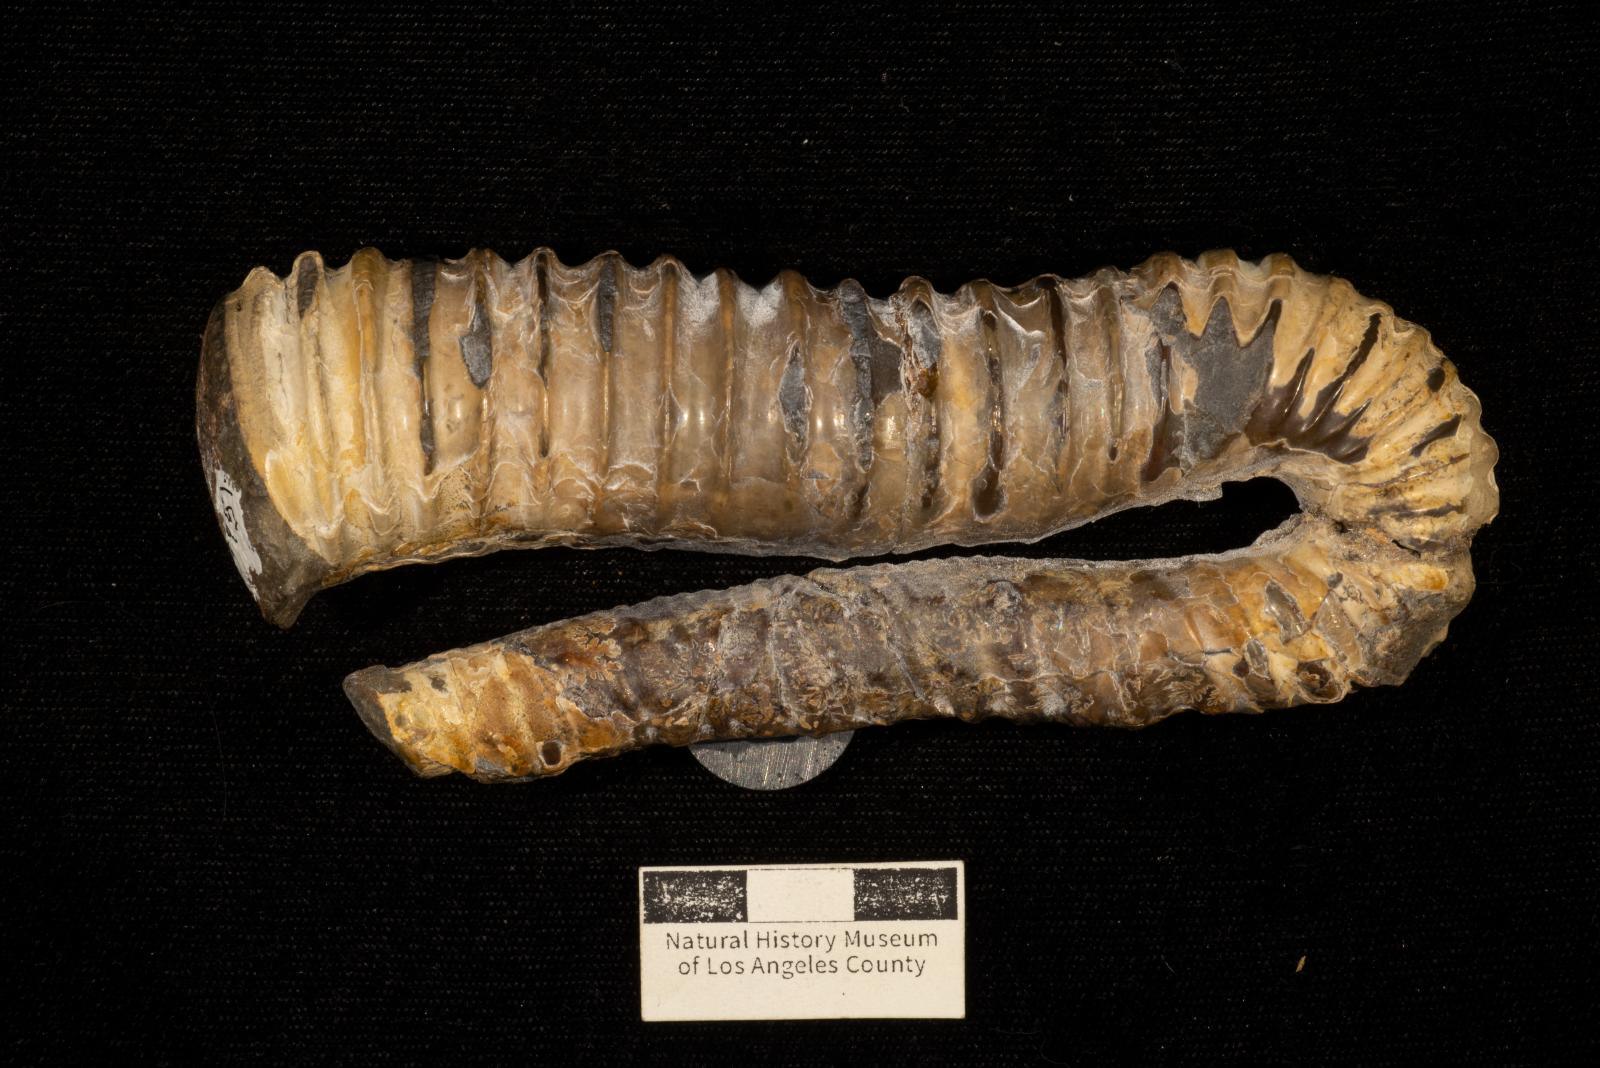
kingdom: Animalia
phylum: Mollusca
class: Cephalopoda
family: Ancyloceratidae
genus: Hamiticeras
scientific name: Hamiticeras pilsbryi
